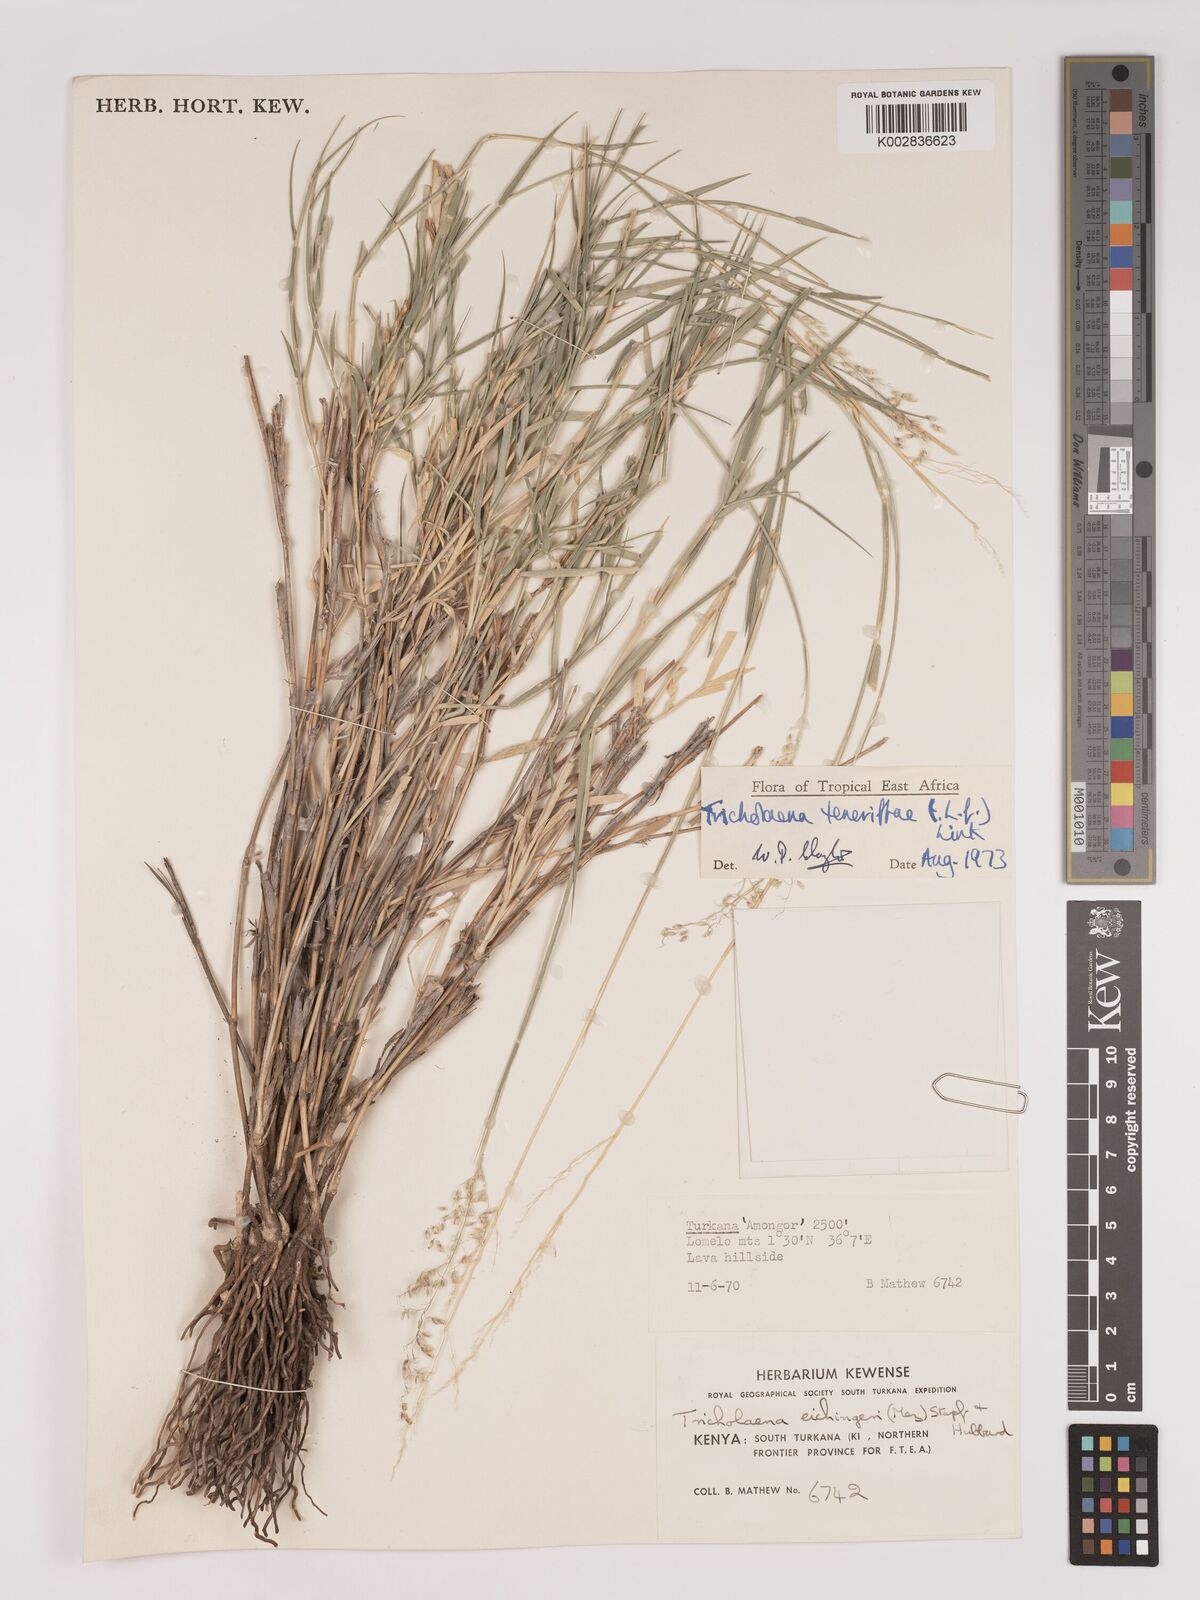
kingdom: Plantae
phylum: Tracheophyta
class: Liliopsida
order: Poales
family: Poaceae
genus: Tricholaena
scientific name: Tricholaena teneriffae
